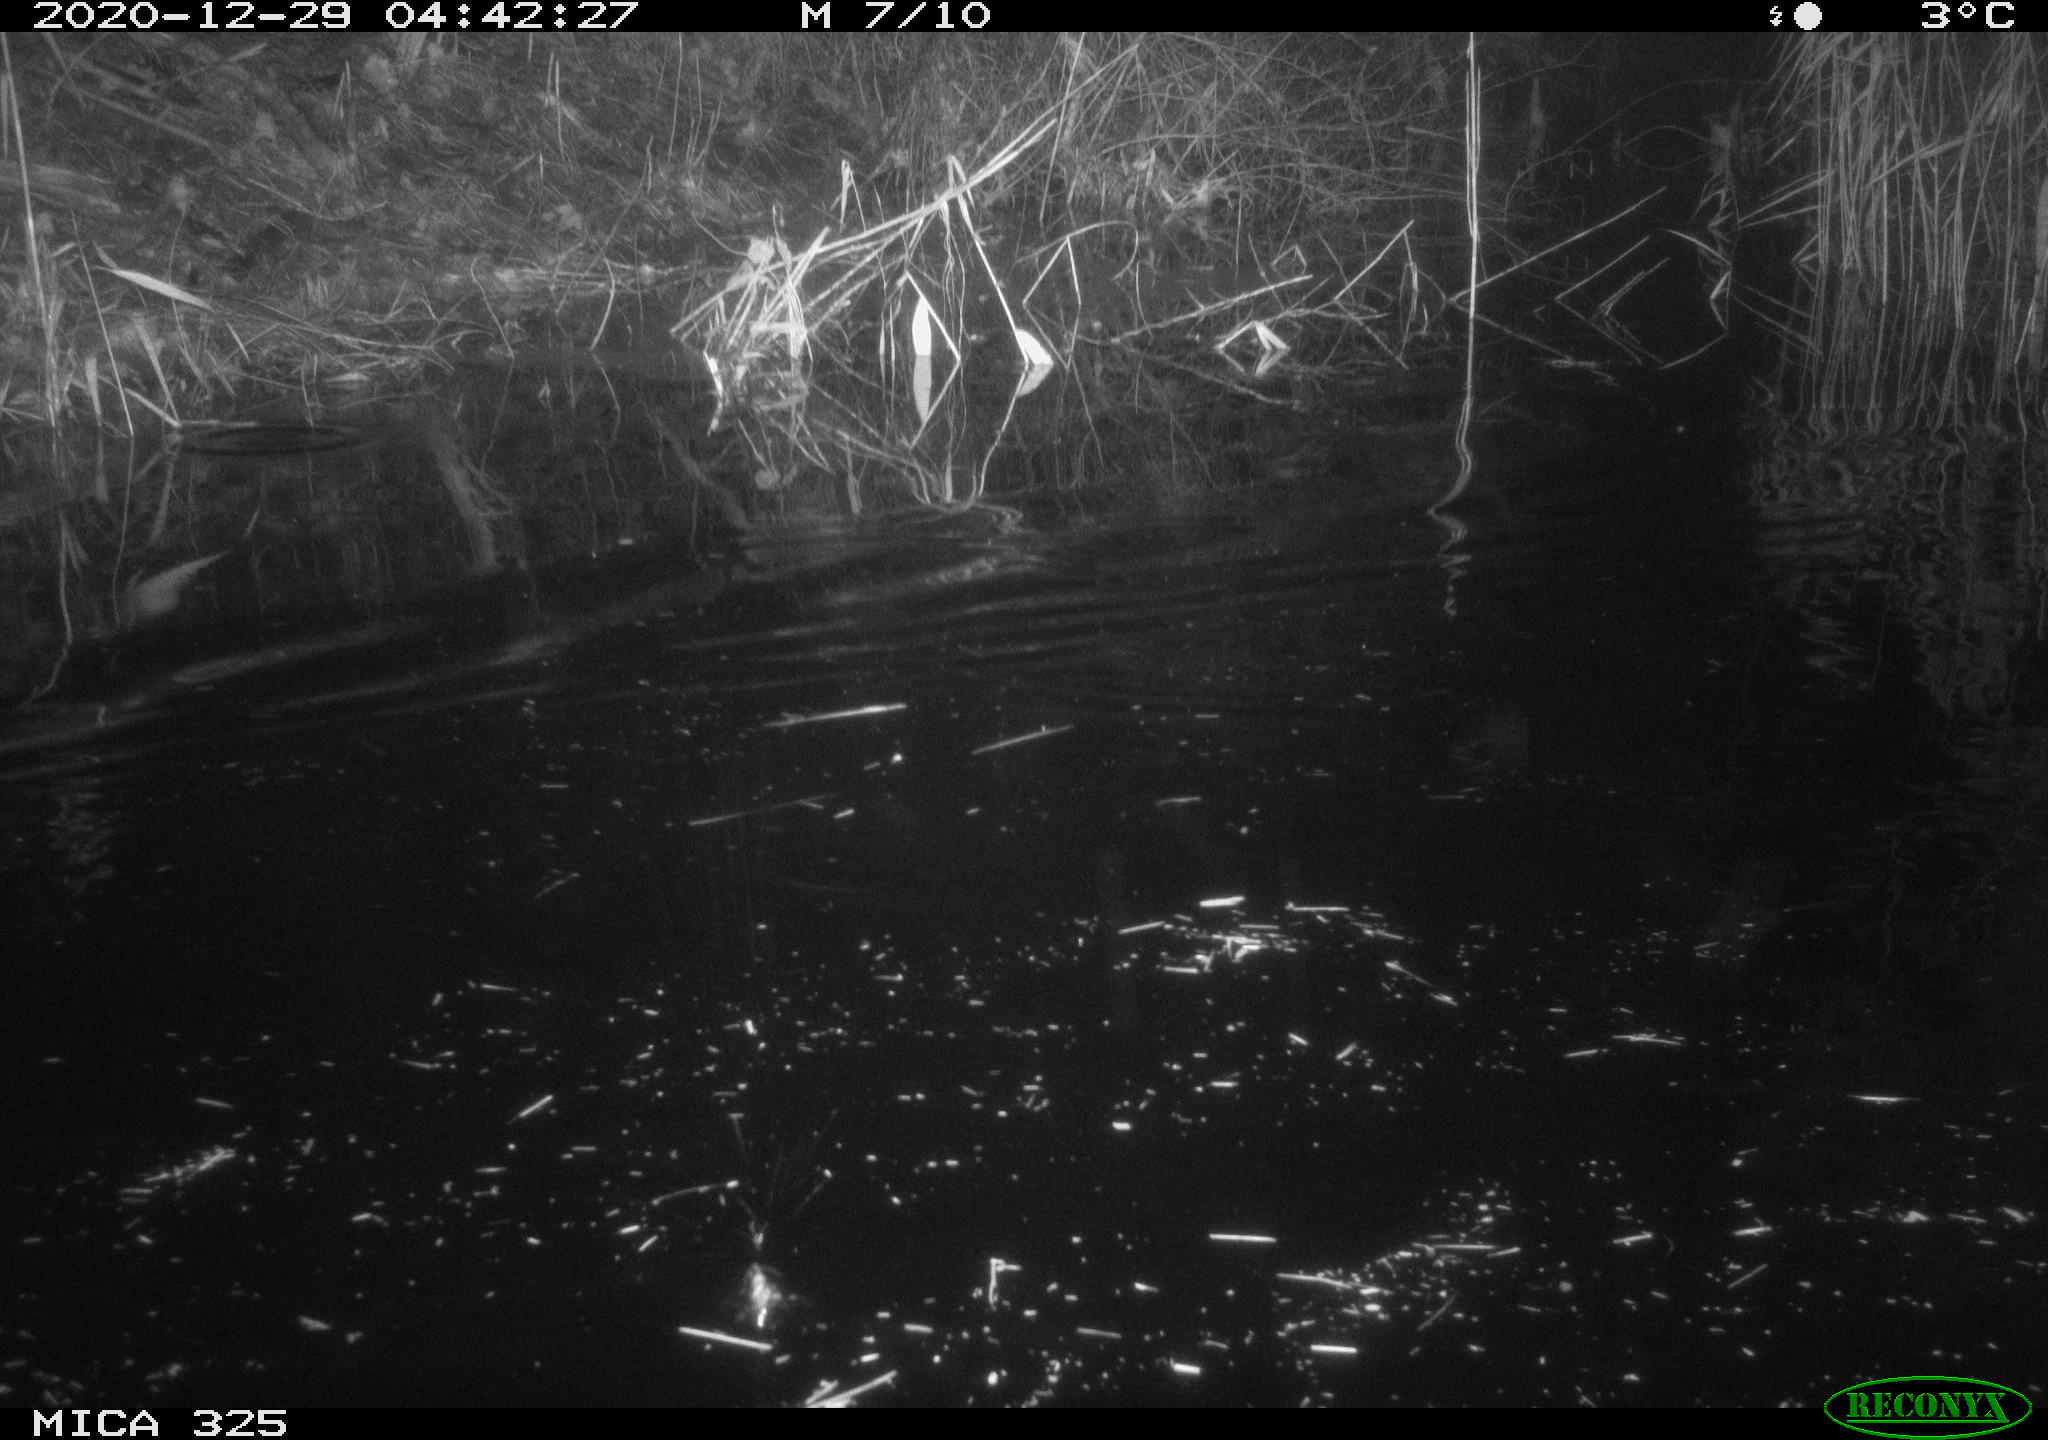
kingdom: Animalia
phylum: Chordata
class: Mammalia
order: Rodentia
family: Myocastoridae
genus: Myocastor
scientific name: Myocastor coypus
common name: Coypu
